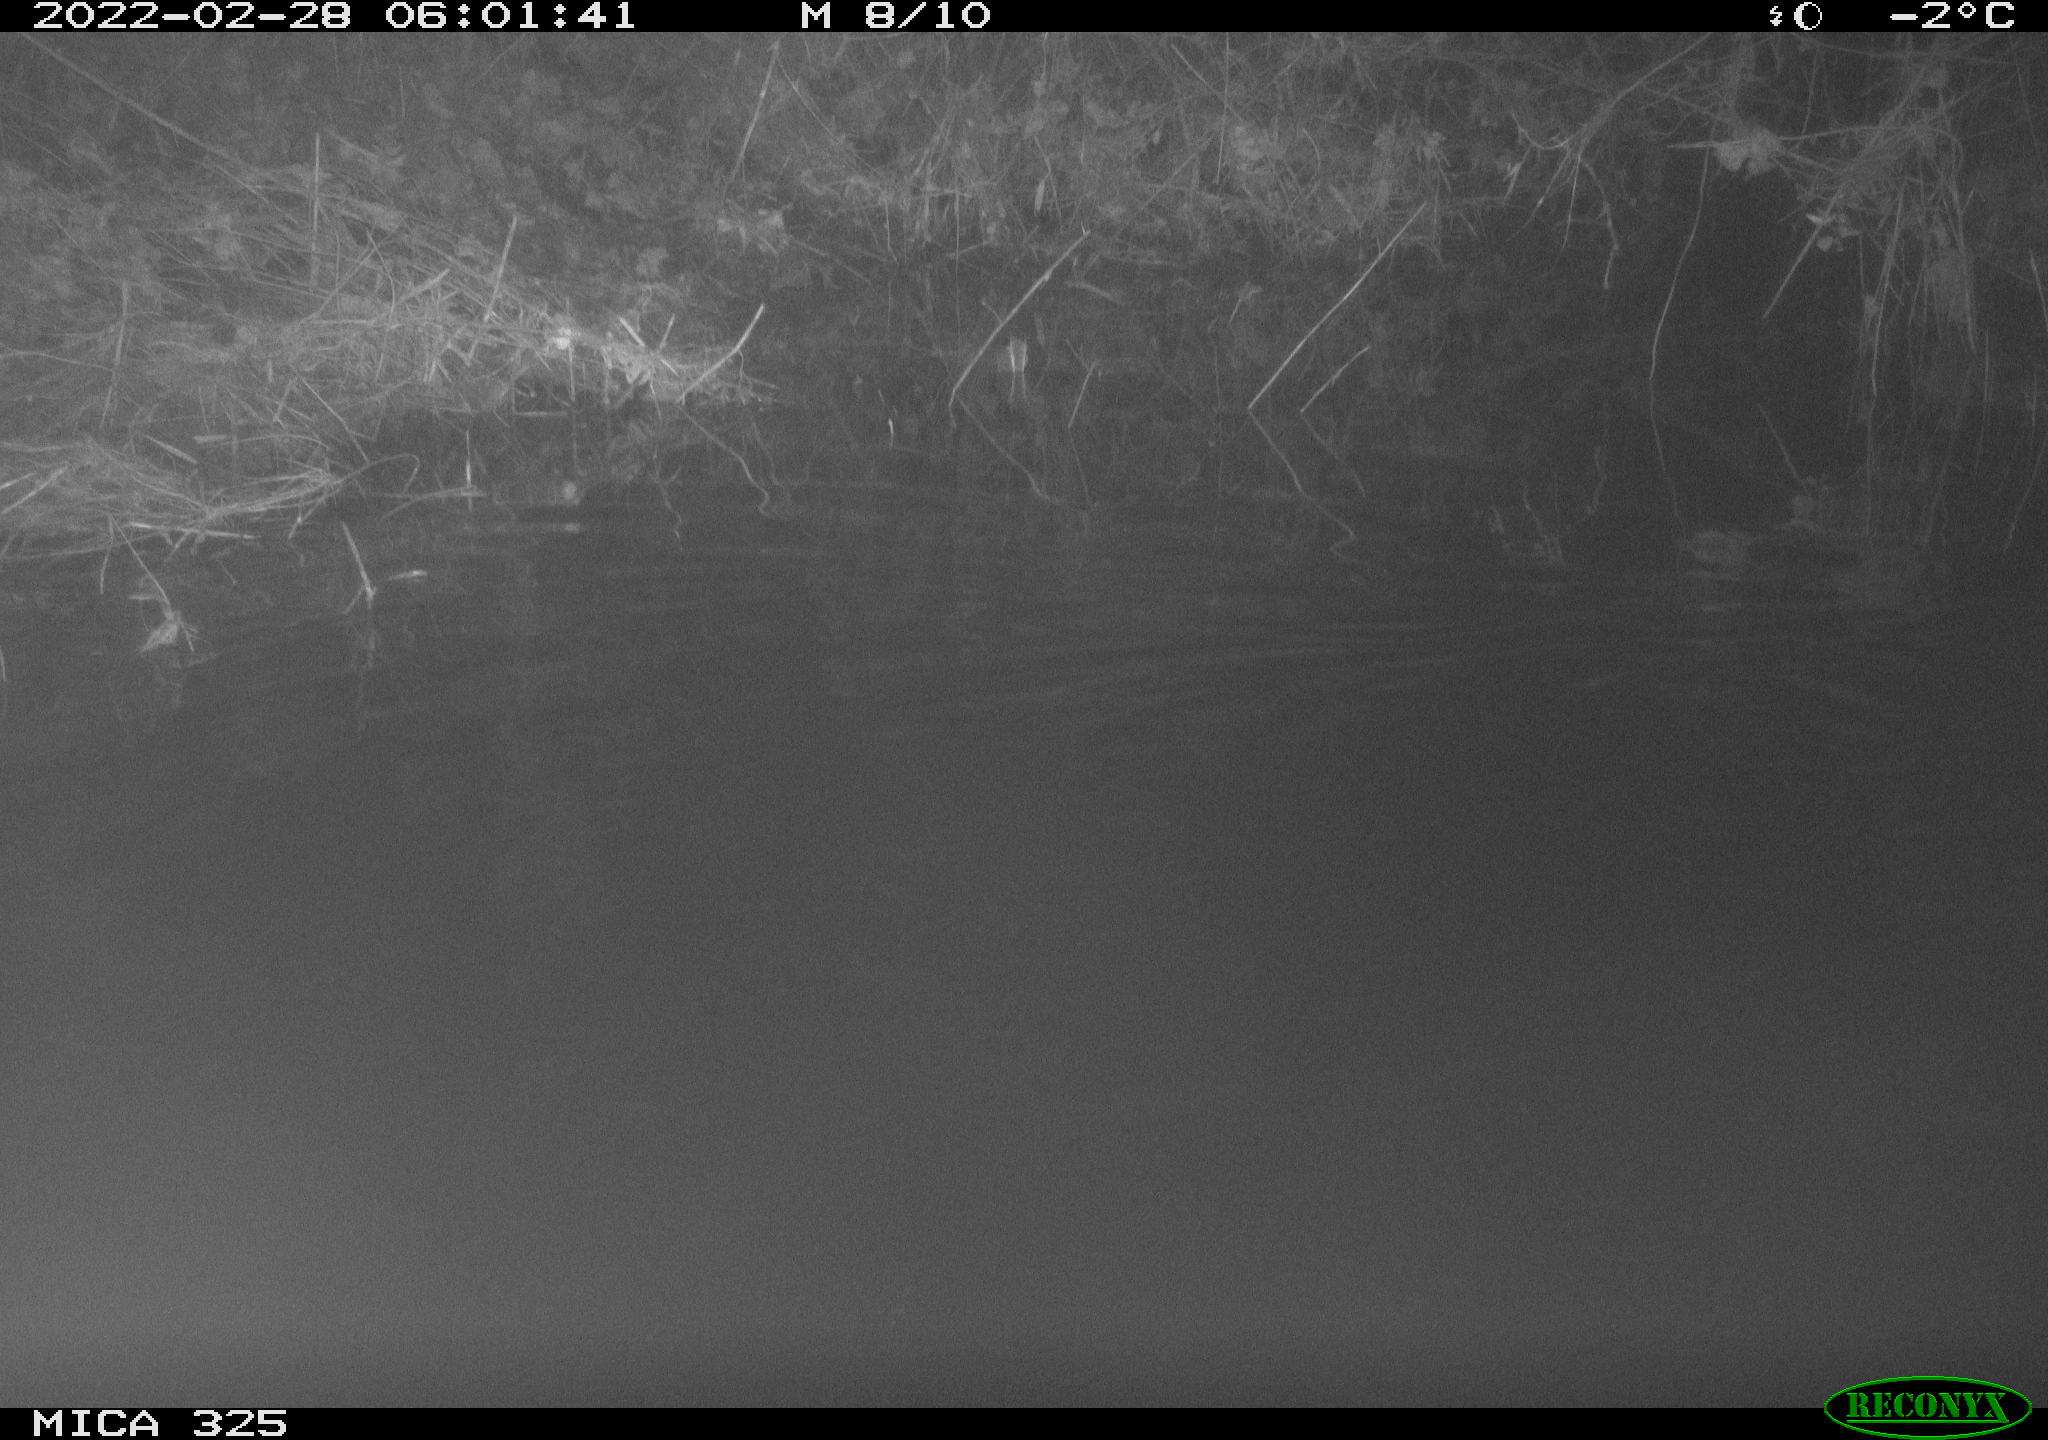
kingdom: Animalia
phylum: Chordata
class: Mammalia
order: Rodentia
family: Cricetidae
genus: Ondatra
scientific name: Ondatra zibethicus
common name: Muskrat
